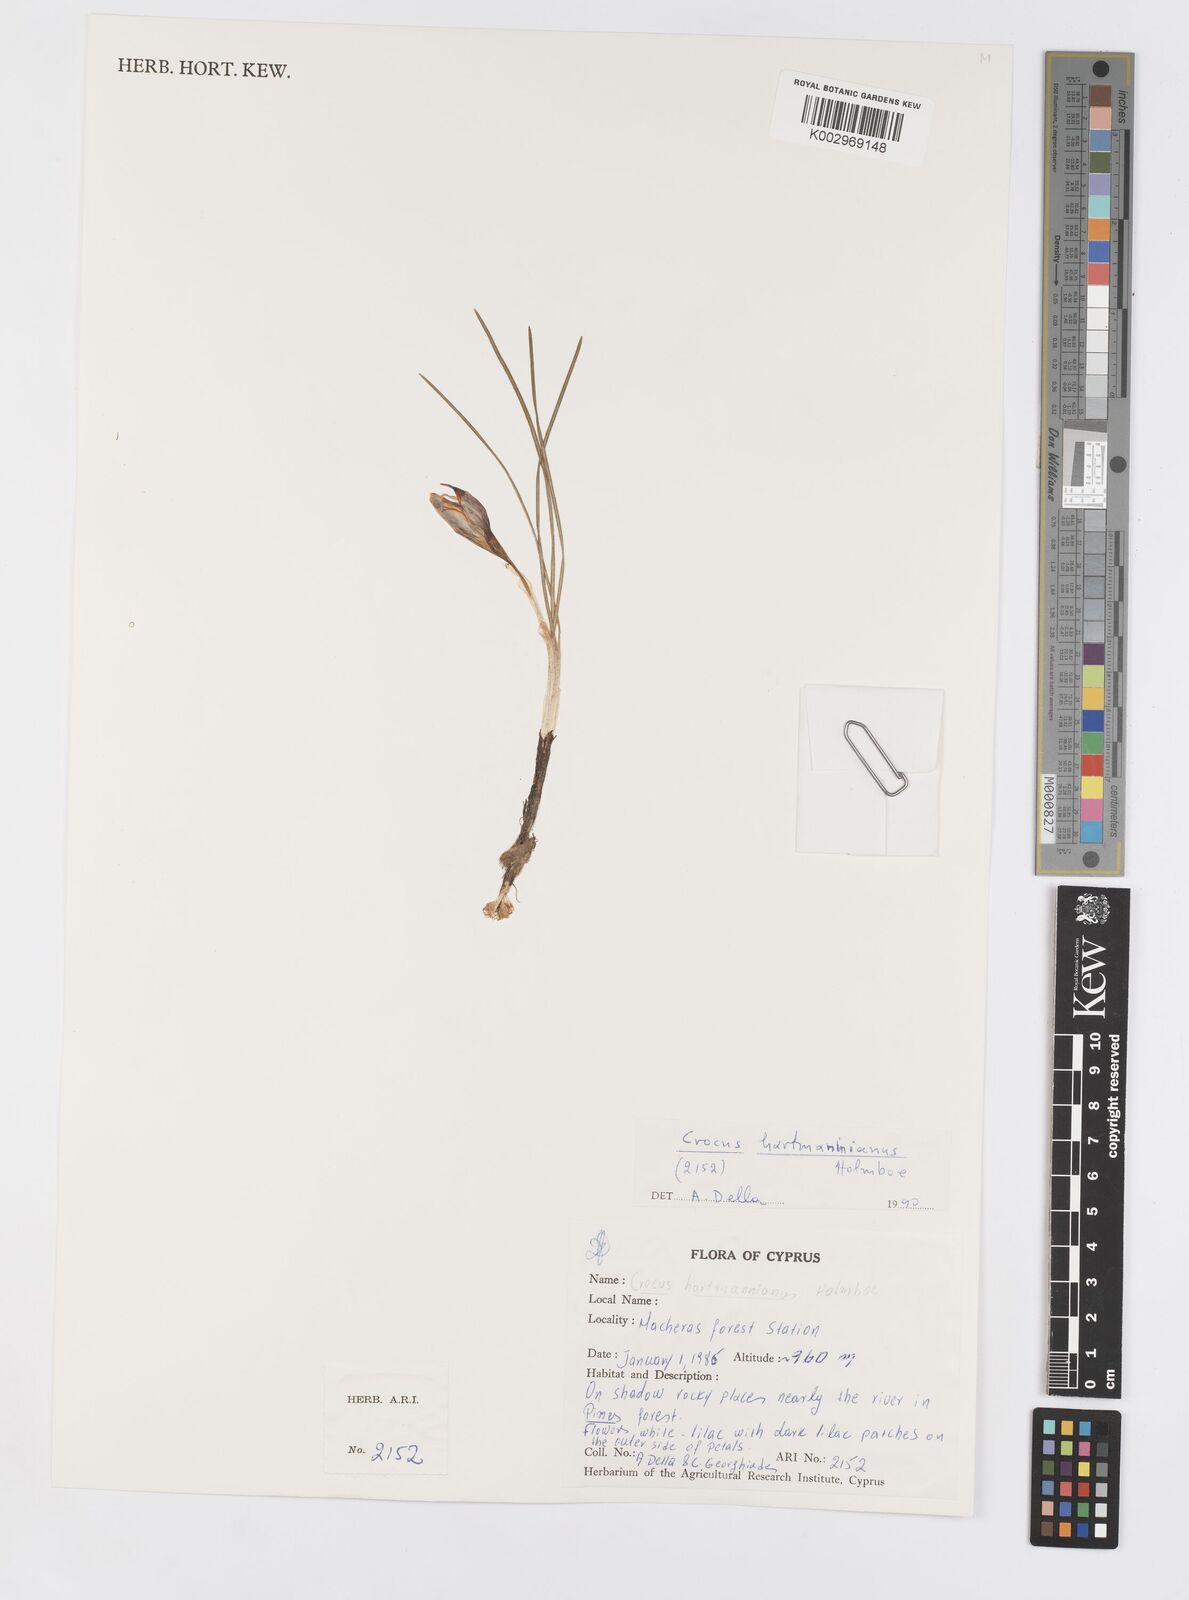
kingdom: Plantae
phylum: Tracheophyta
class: Liliopsida
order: Asparagales
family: Iridaceae
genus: Crocus
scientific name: Crocus hartmannianus
